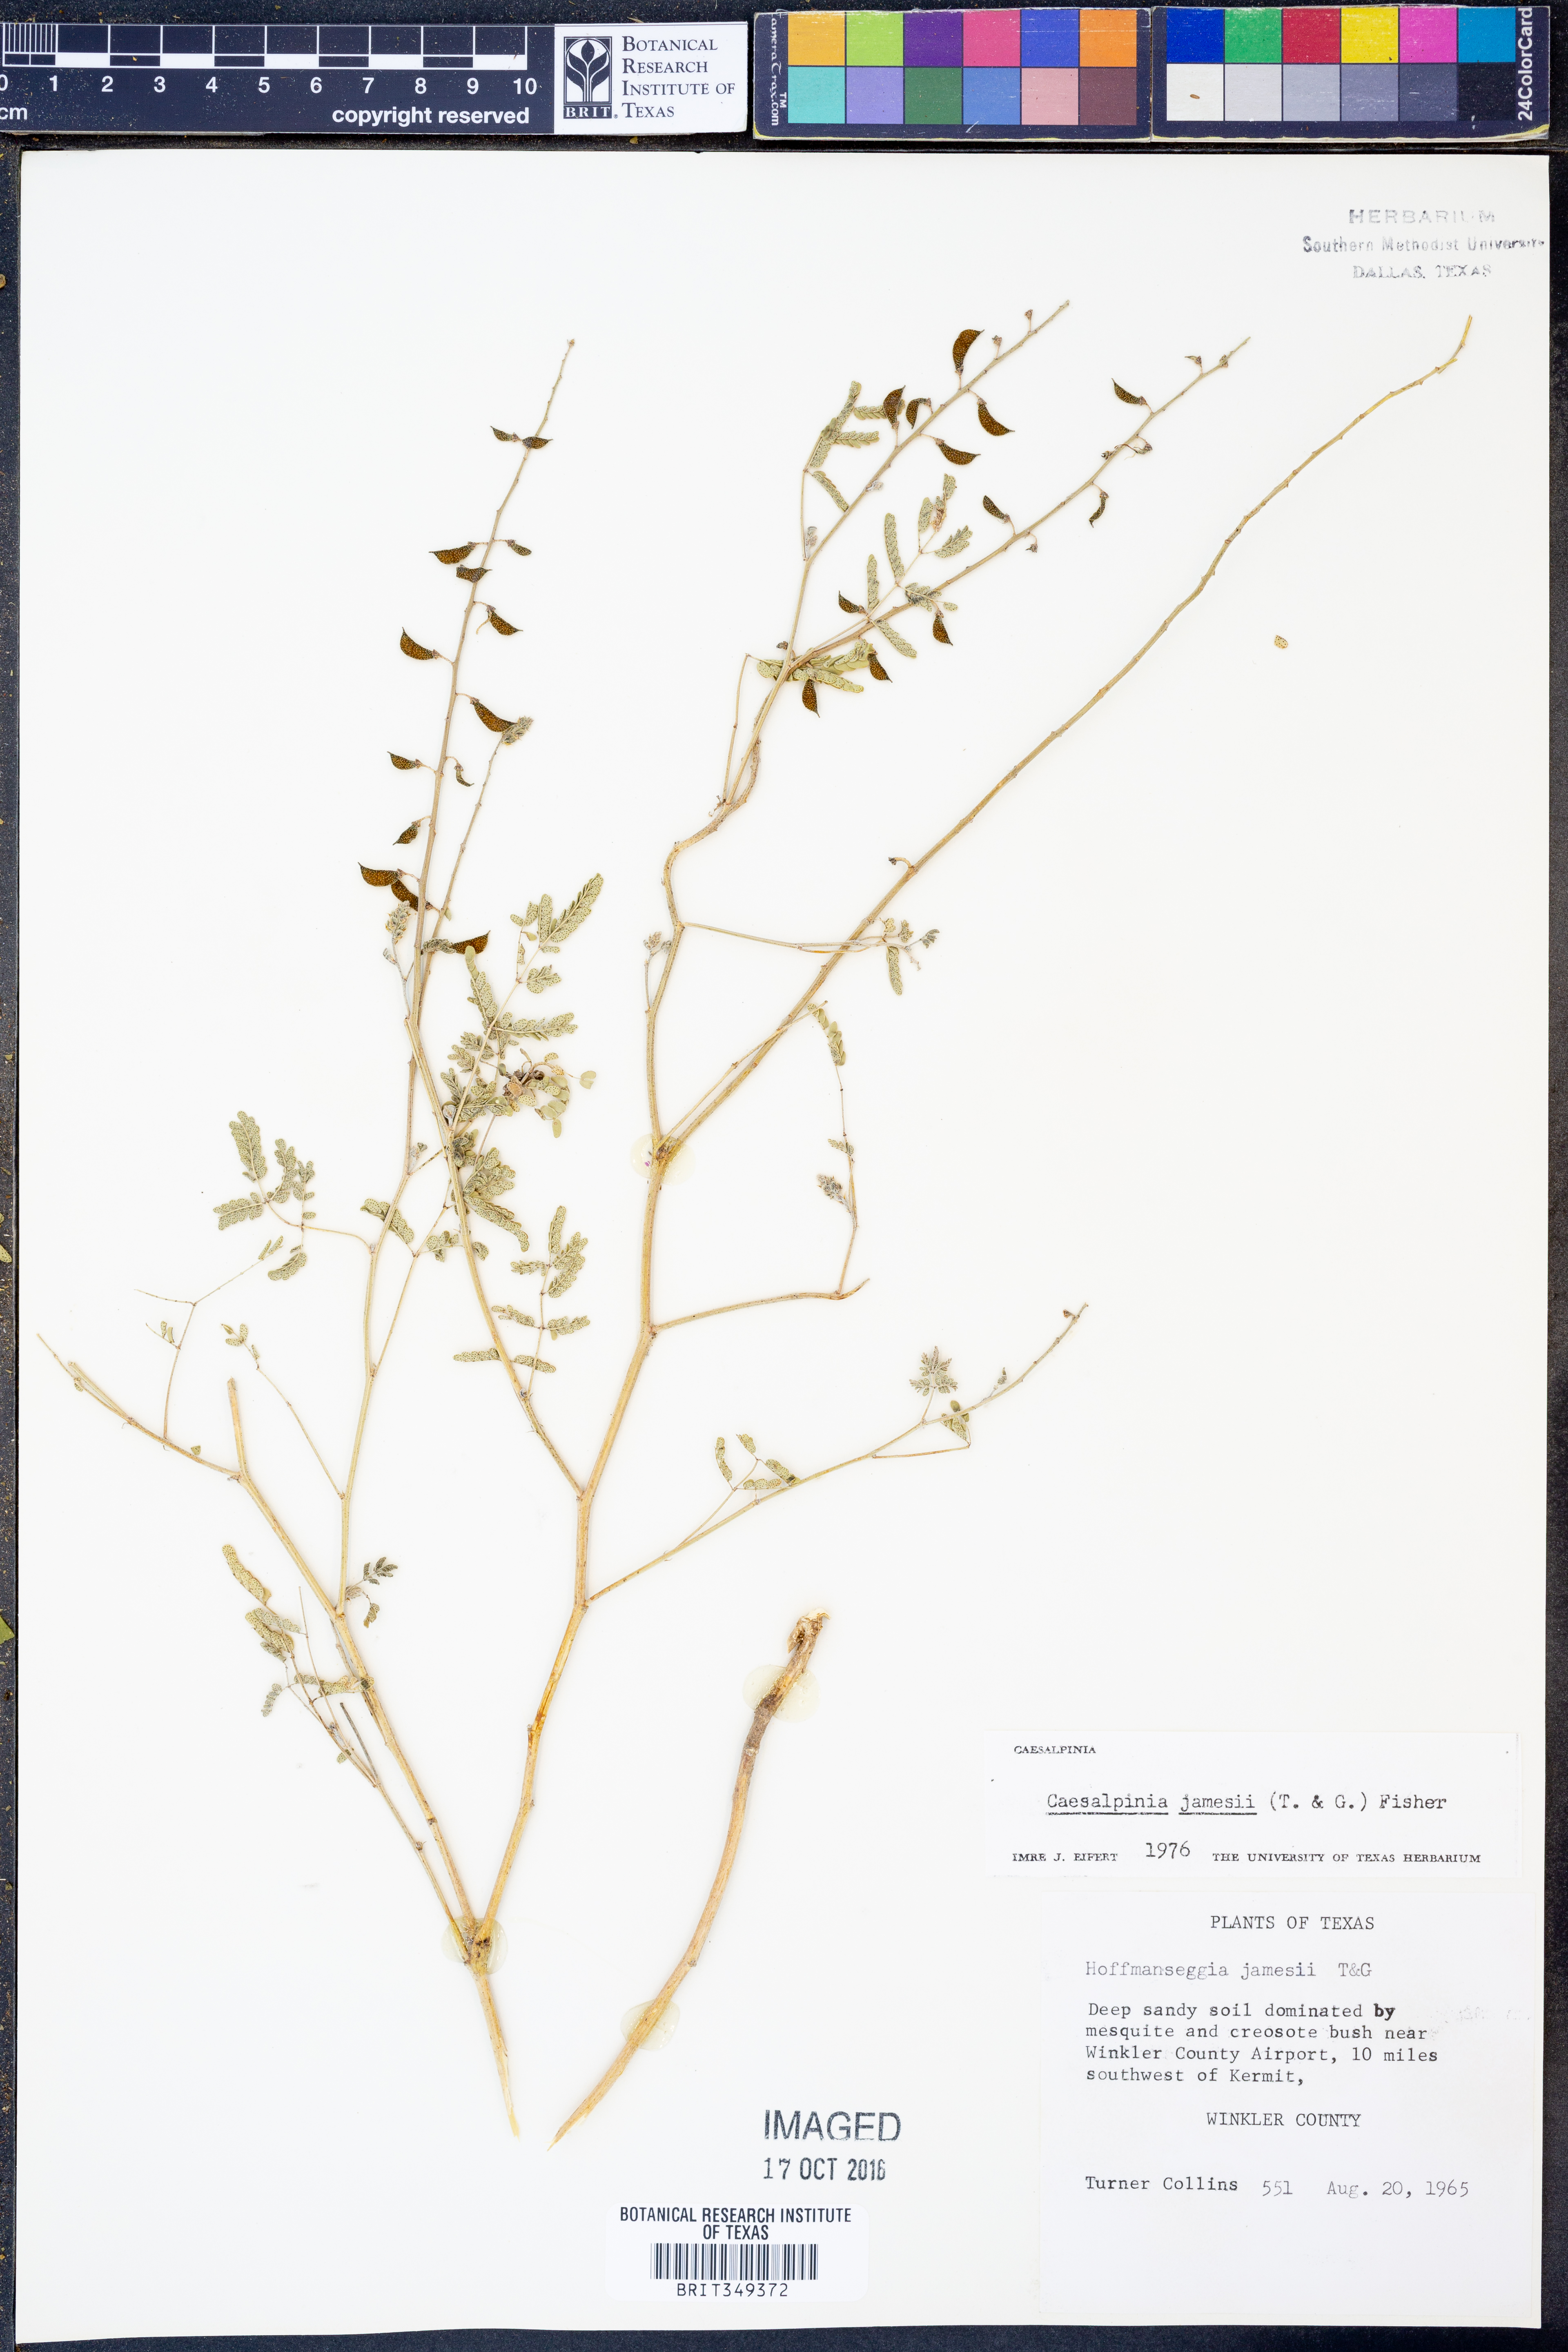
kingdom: Plantae
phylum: Tracheophyta
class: Magnoliopsida
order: Fabales
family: Fabaceae
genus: Pomaria
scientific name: Pomaria jamesii
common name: James' caesalpinia
